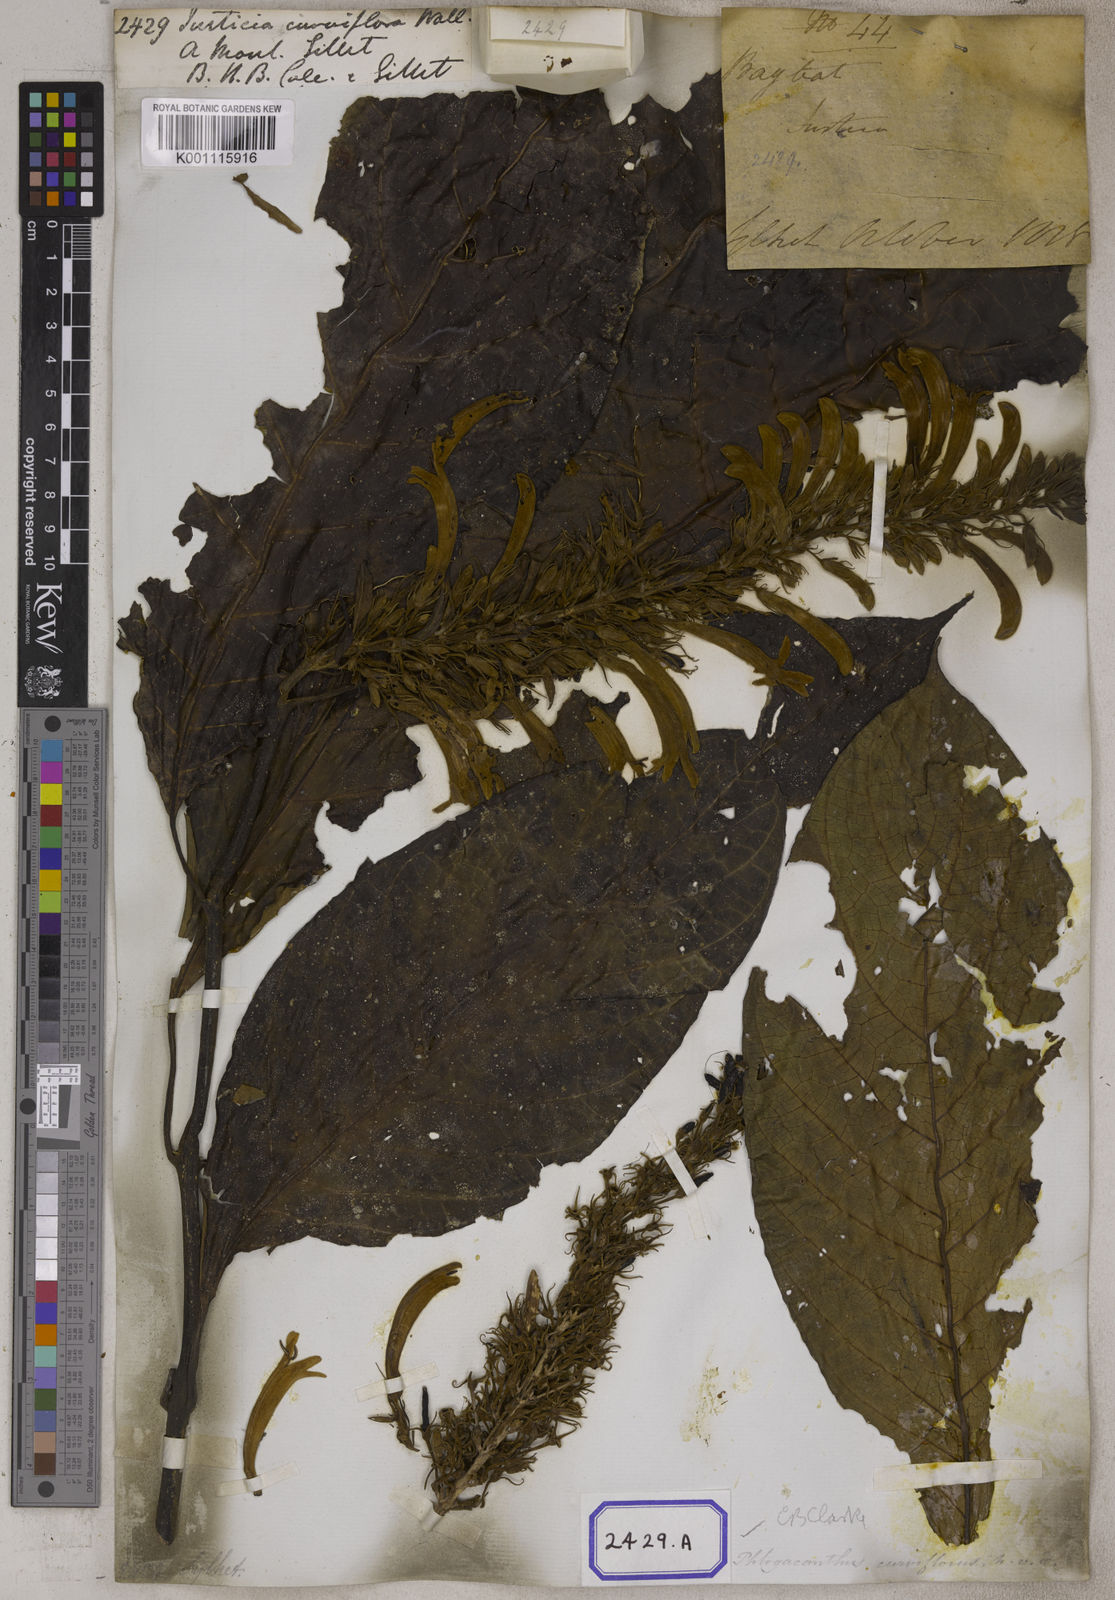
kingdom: Plantae
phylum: Tracheophyta
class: Magnoliopsida
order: Lamiales
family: Acanthaceae
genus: Justicia
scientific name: Justicia
